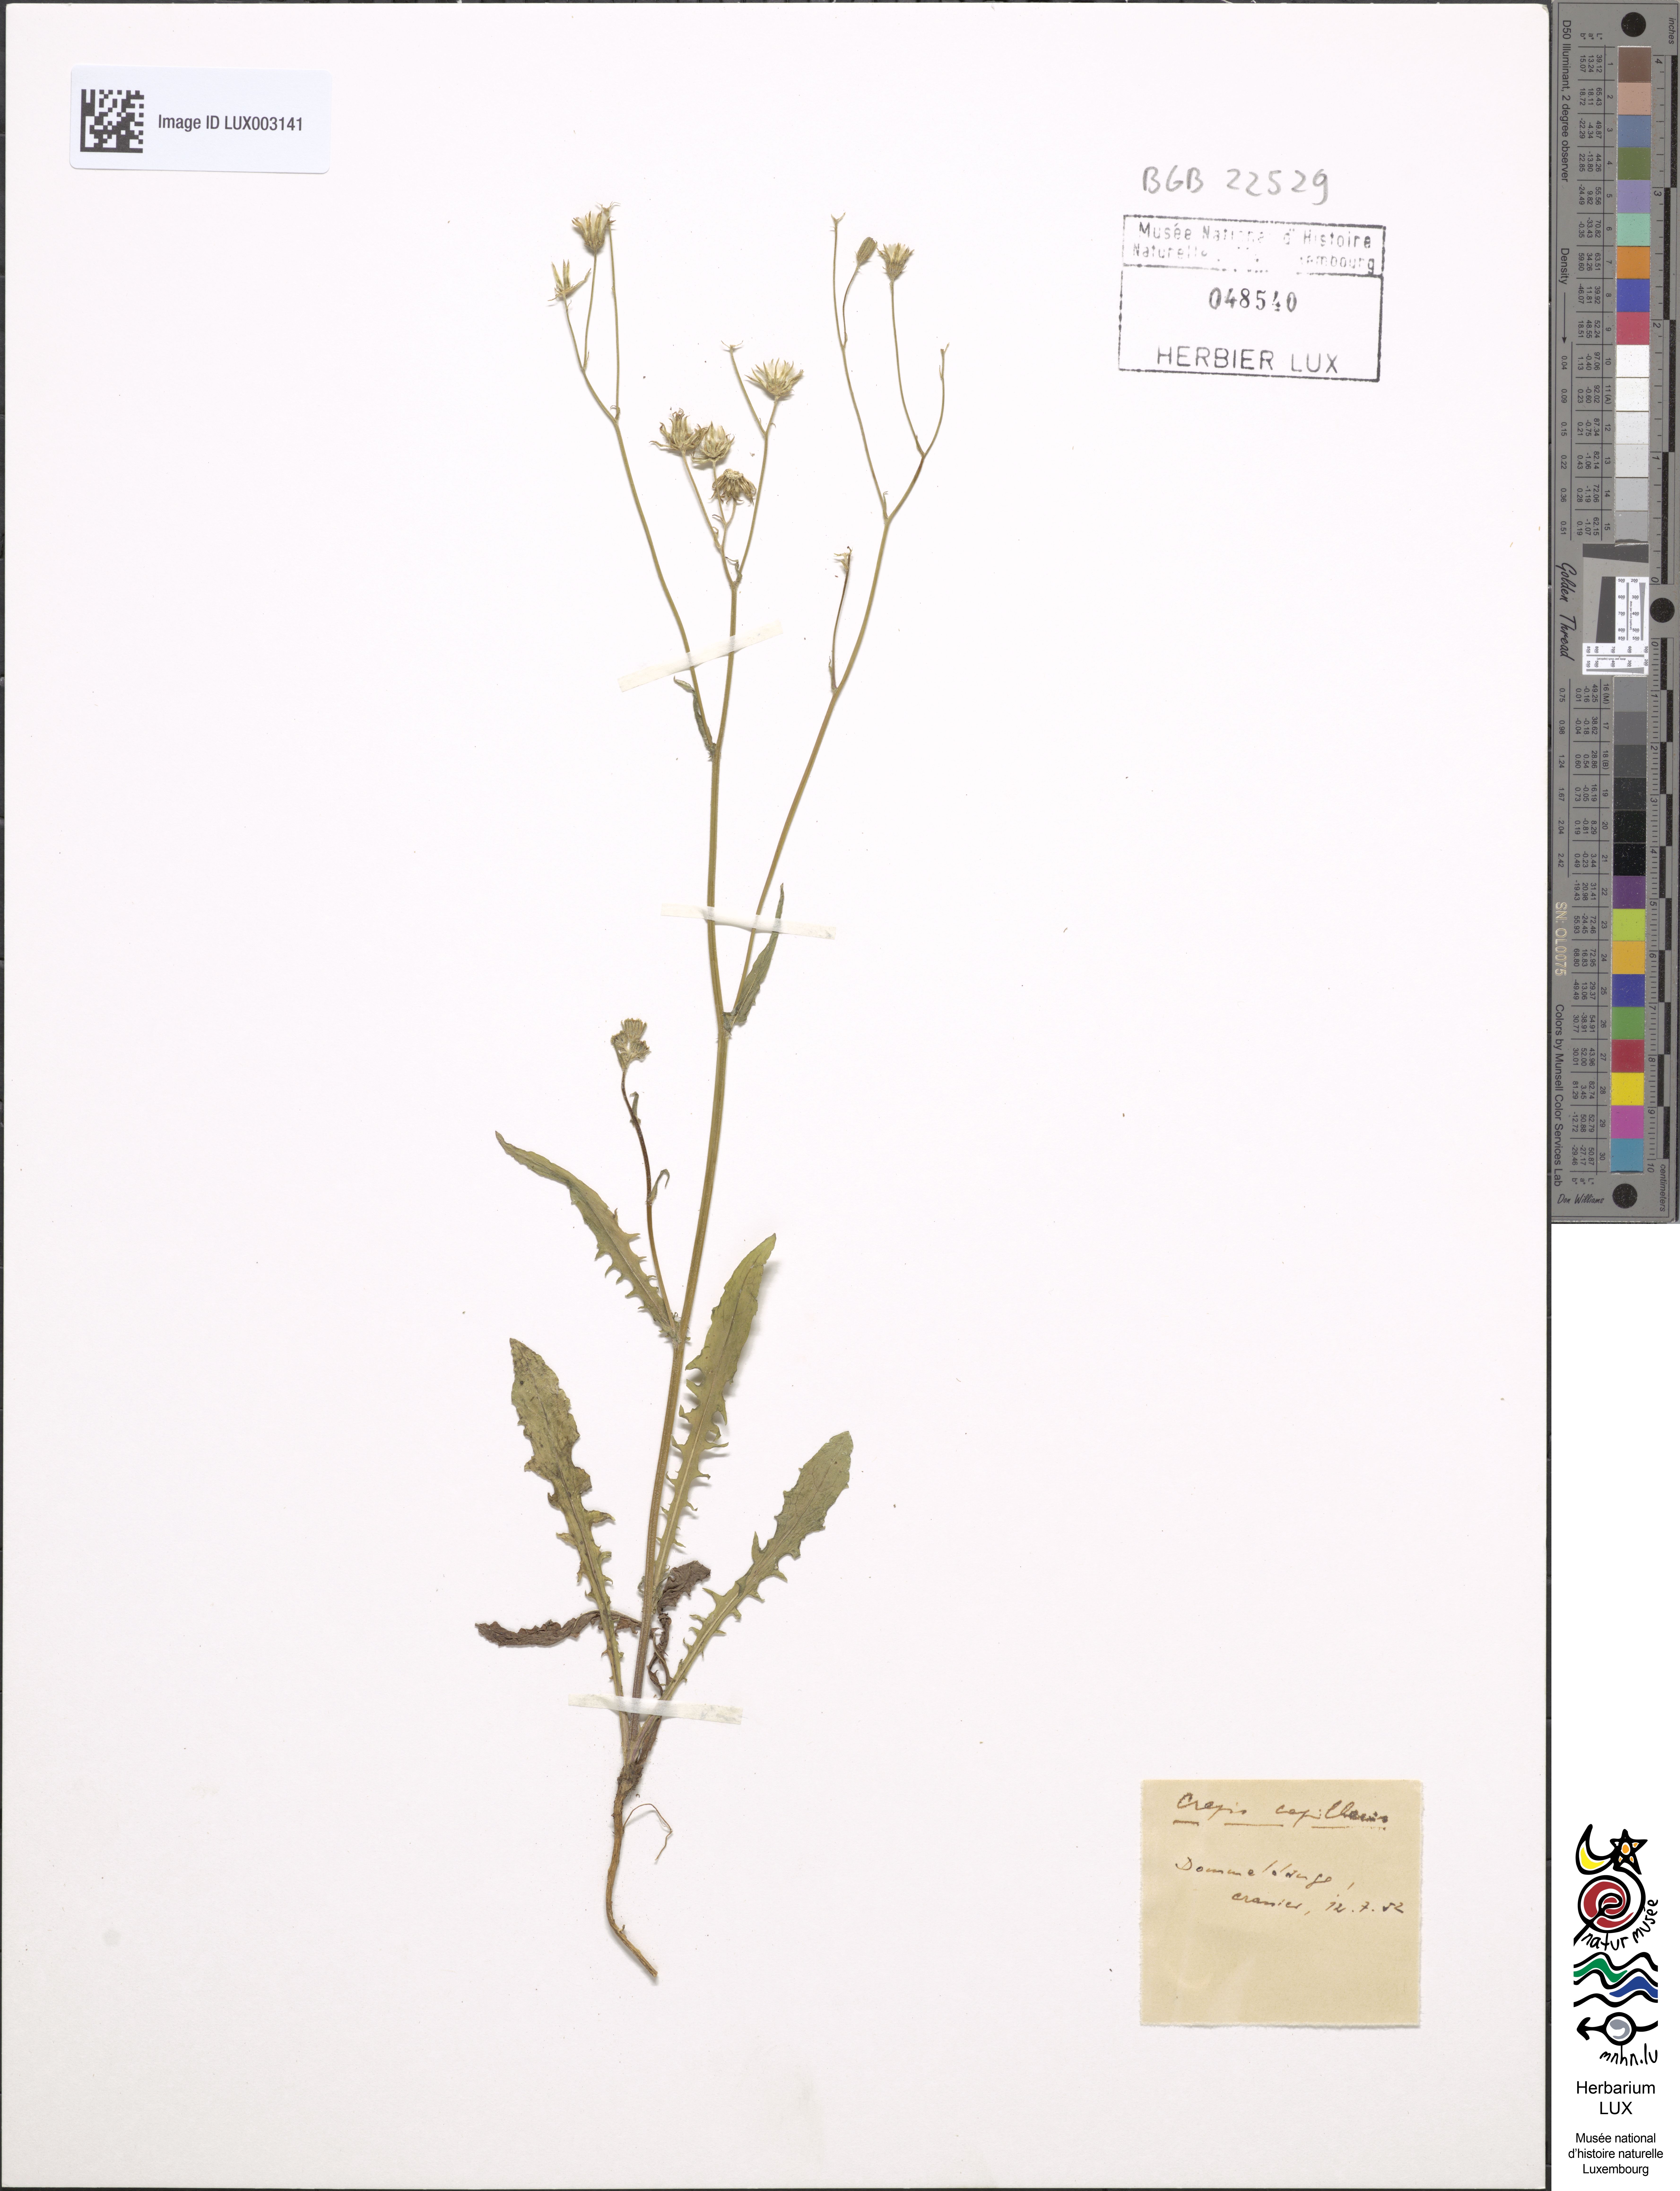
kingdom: Plantae
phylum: Tracheophyta
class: Magnoliopsida
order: Asterales
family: Asteraceae
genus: Crepis
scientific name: Crepis capillaris
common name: Smooth hawksbeard
